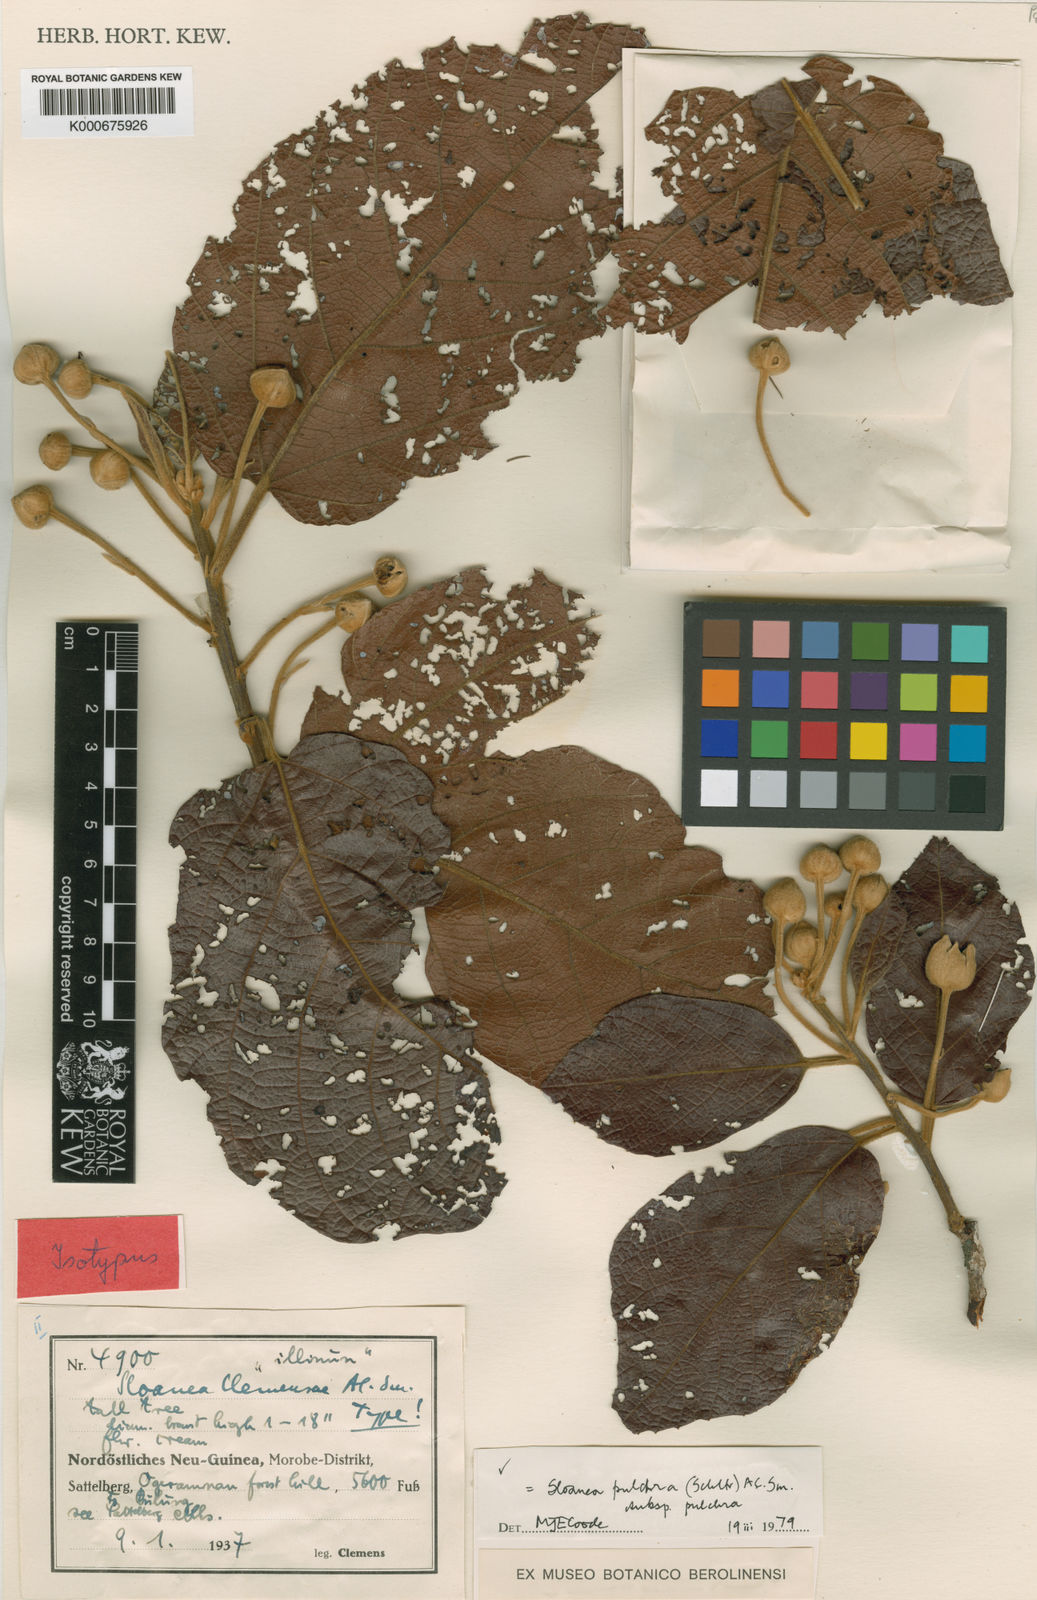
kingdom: Plantae
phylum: Tracheophyta
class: Magnoliopsida
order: Oxalidales
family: Elaeocarpaceae
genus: Sloanea
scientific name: Sloanea pulchra
